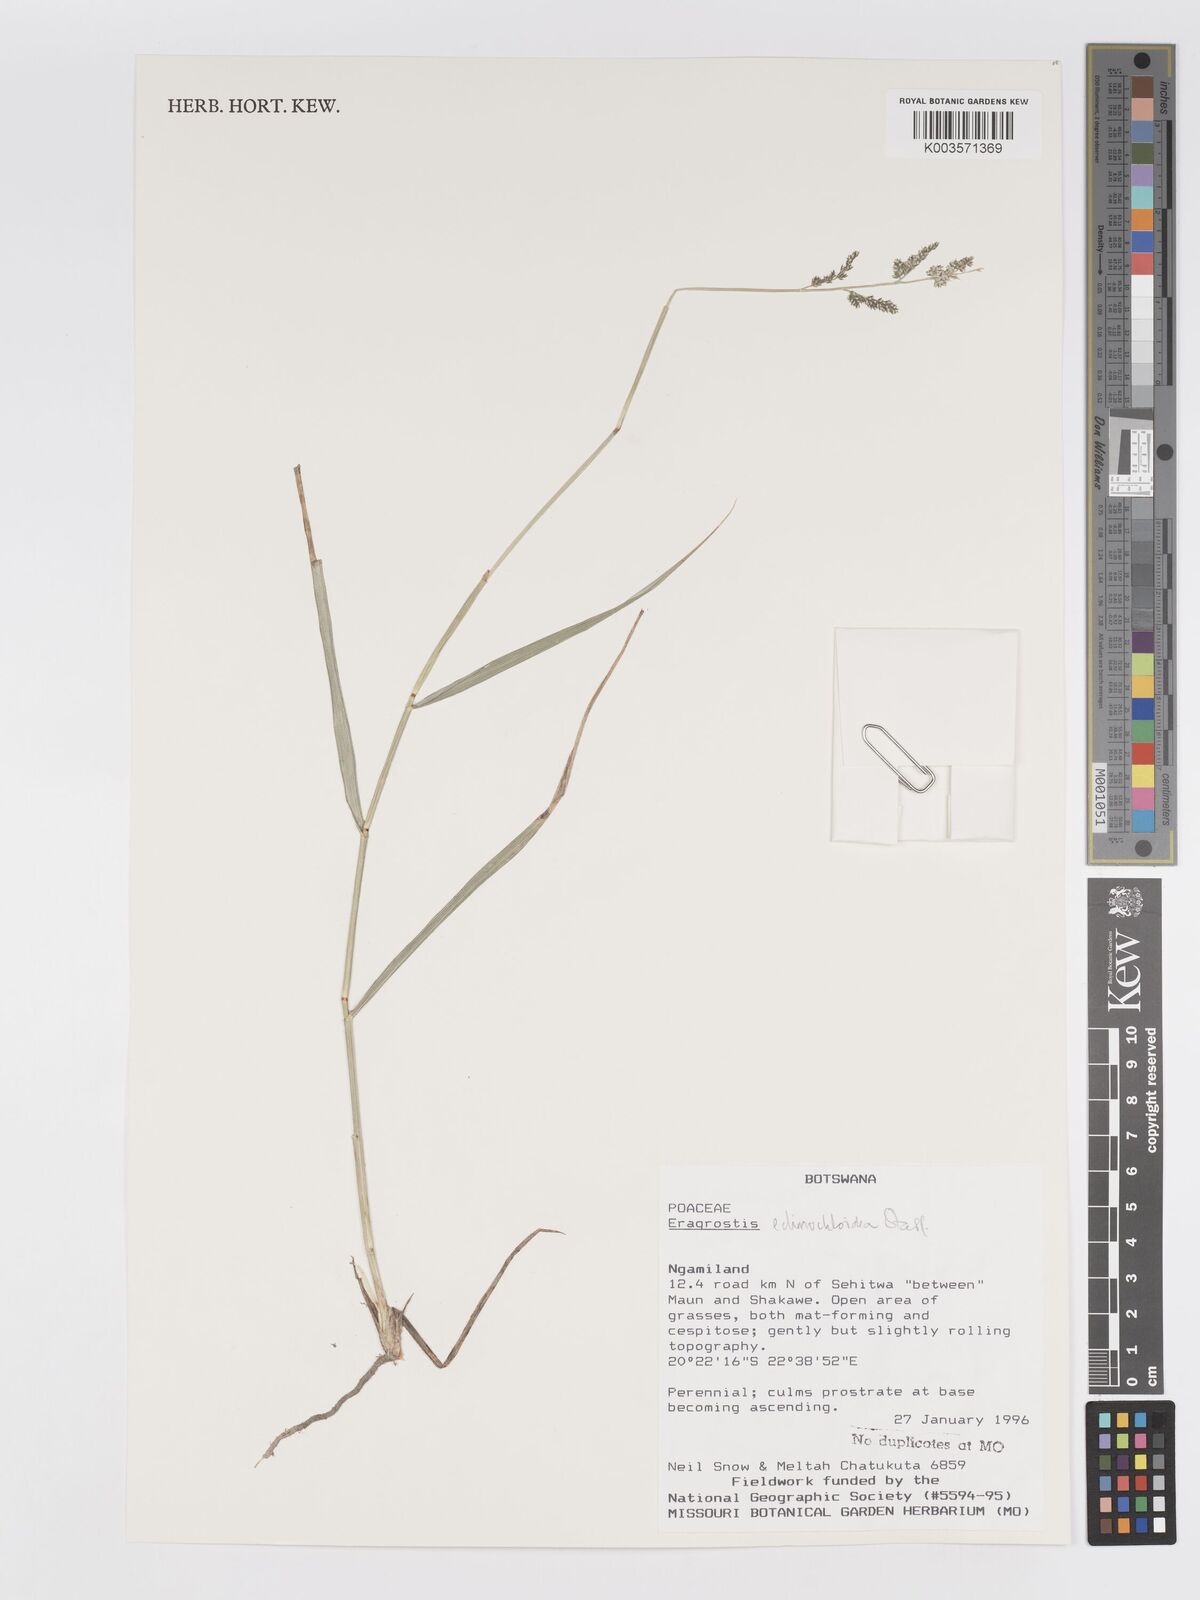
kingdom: Plantae
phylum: Tracheophyta
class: Liliopsida
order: Poales
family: Poaceae
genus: Eragrostis
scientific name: Eragrostis echinochloidea
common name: African lovegrass
